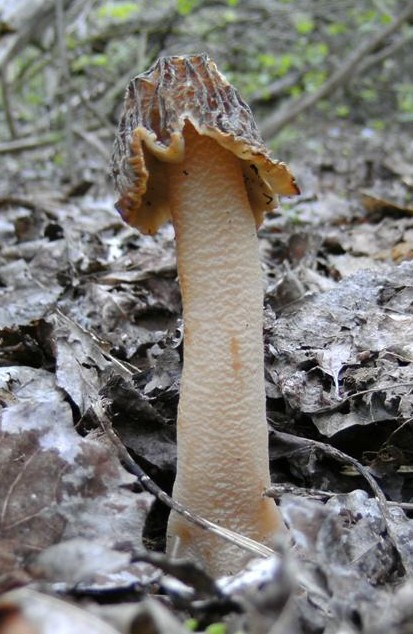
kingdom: Fungi
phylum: Ascomycota
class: Pezizomycetes
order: Pezizales
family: Morchellaceae
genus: Verpa
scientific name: Verpa bohemica
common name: rynket klokkemorkel
